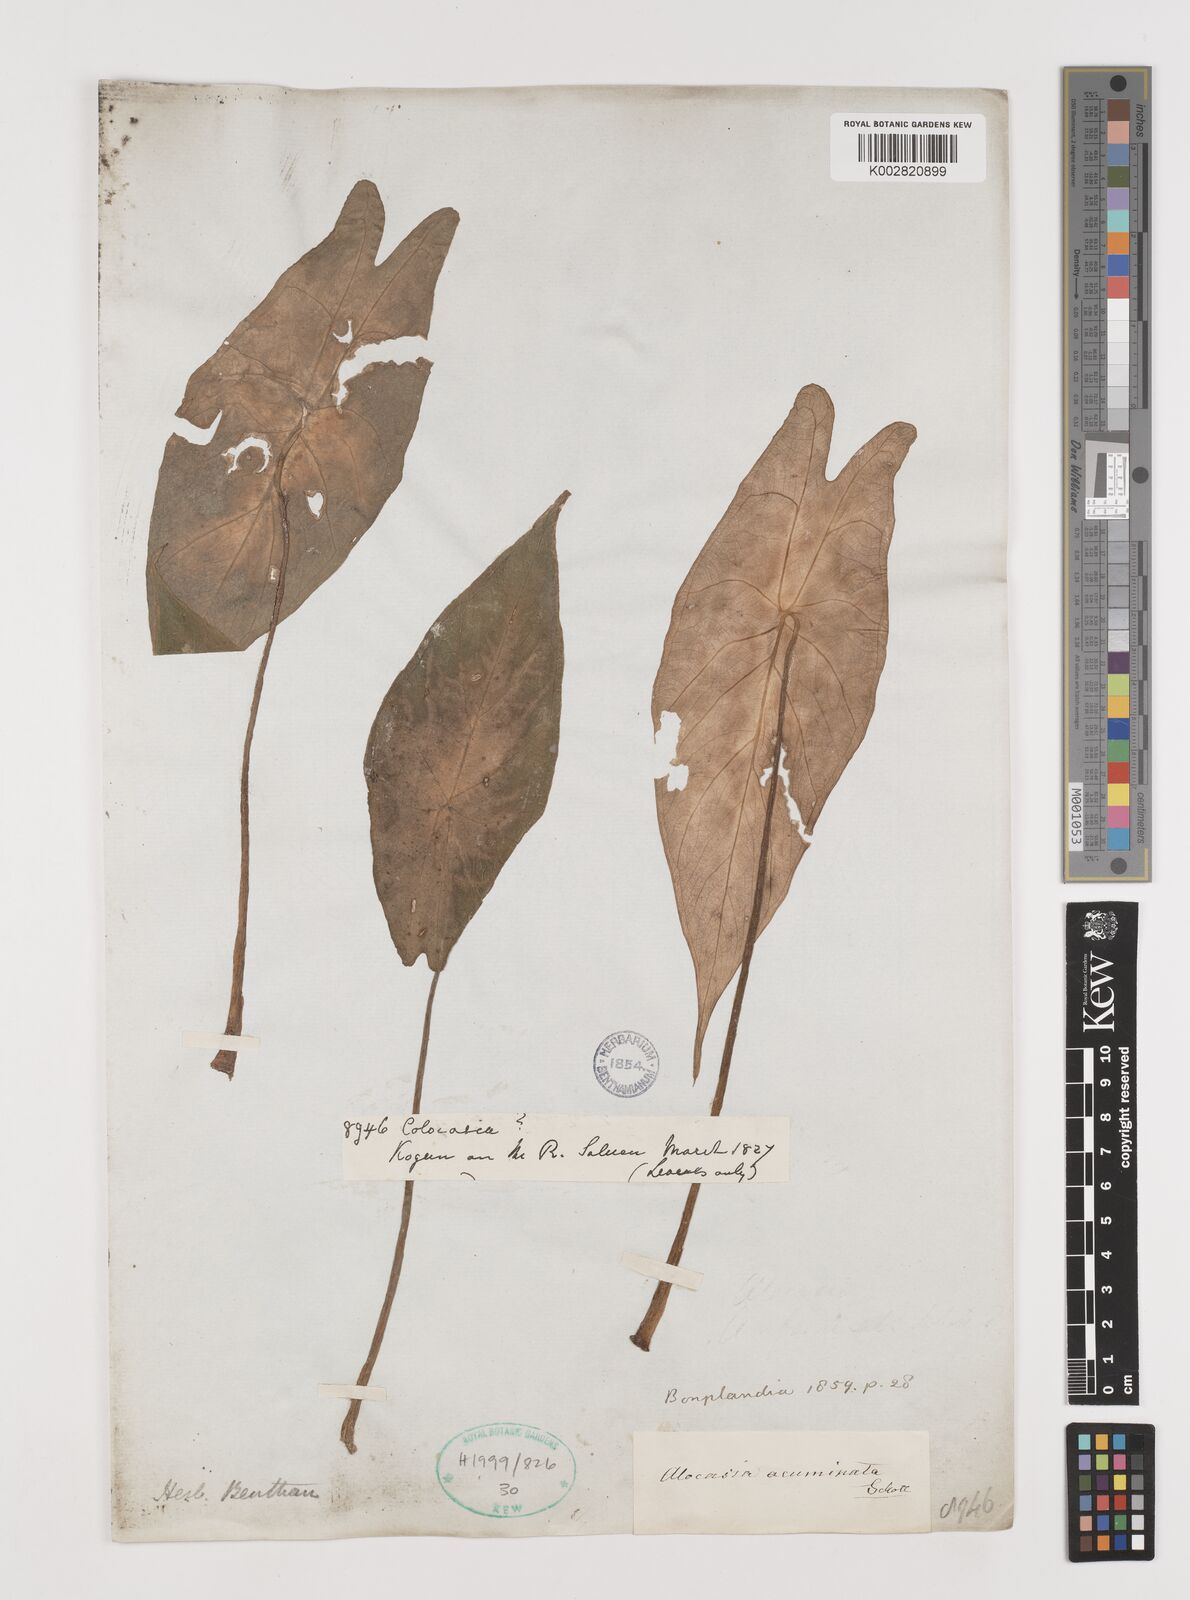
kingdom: Plantae
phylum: Tracheophyta
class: Liliopsida
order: Alismatales
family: Araceae
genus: Alocasia
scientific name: Alocasia acuminata
